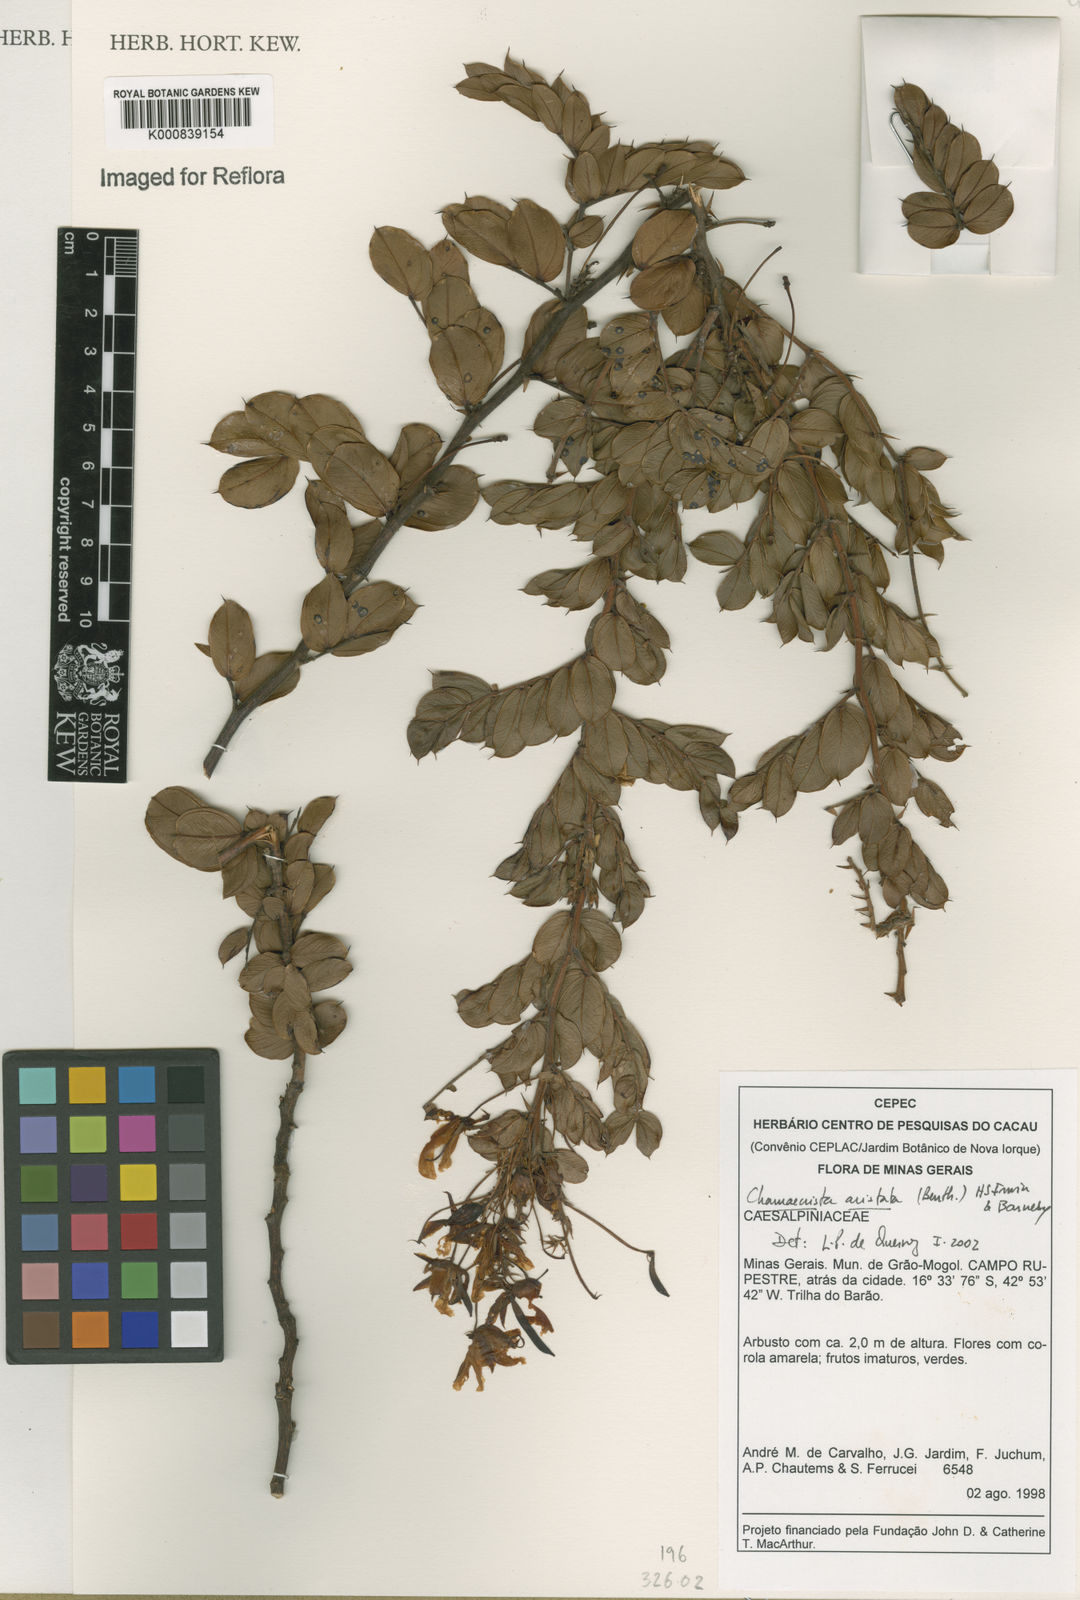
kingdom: Plantae
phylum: Tracheophyta
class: Magnoliopsida
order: Fabales
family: Fabaceae
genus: Chamaecrista
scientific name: Chamaecrista aristata
